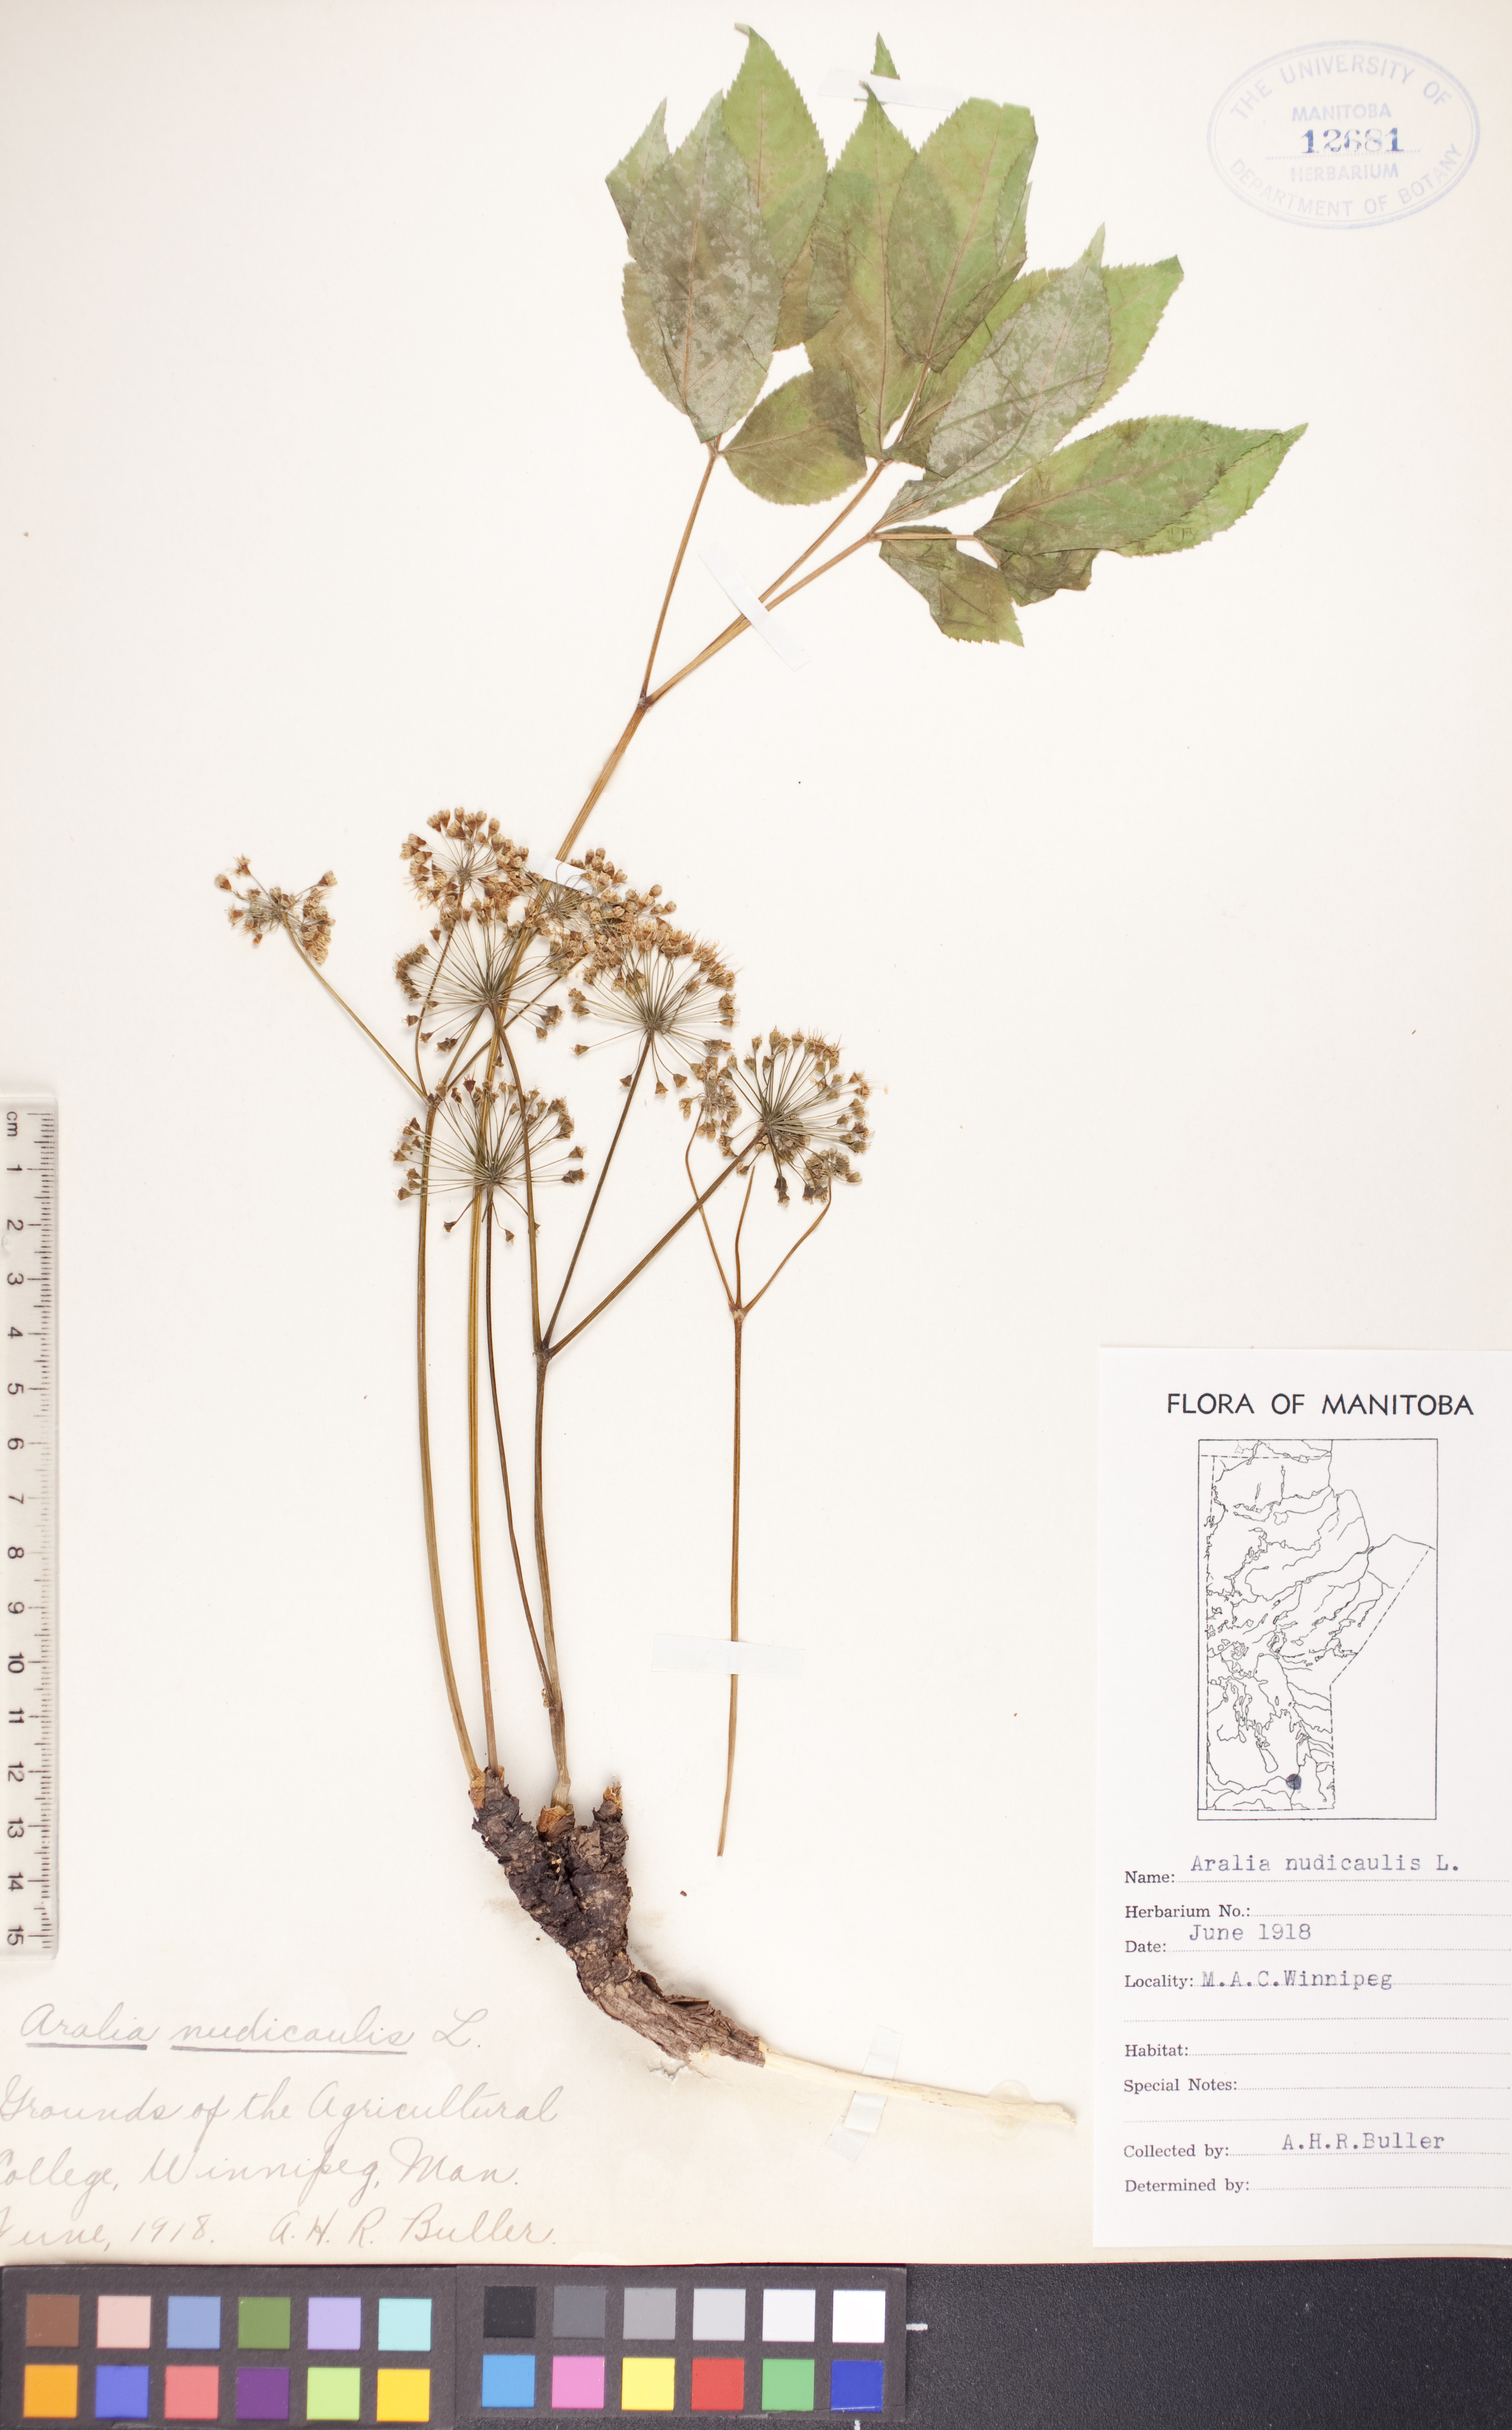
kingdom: Plantae
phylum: Tracheophyta
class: Magnoliopsida
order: Apiales
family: Araliaceae
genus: Aralia
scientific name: Aralia nudicaulis
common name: Wild sarsaparilla
